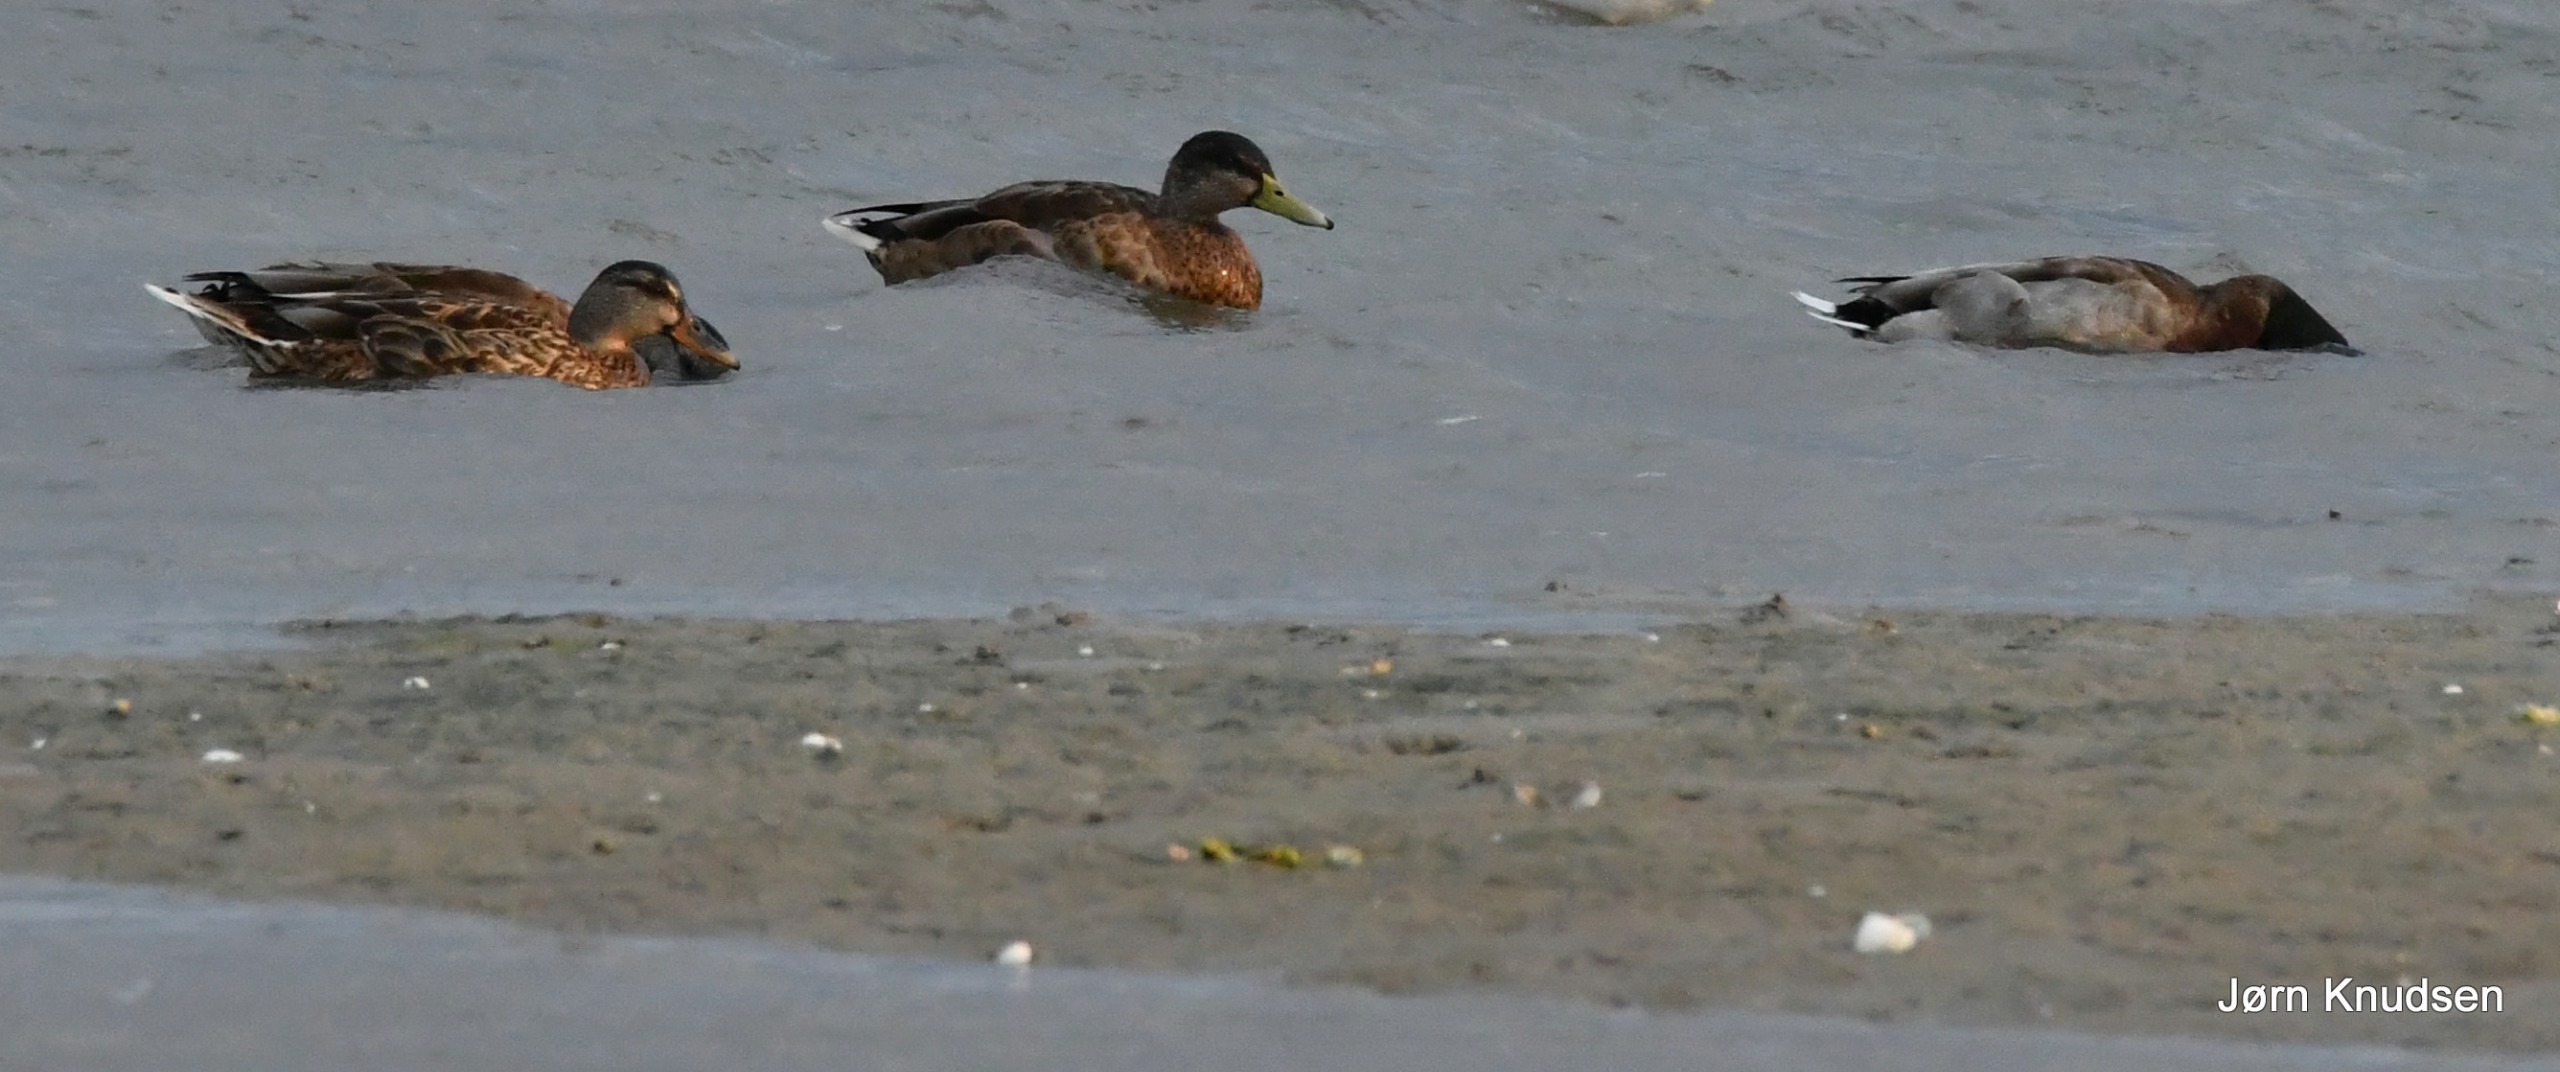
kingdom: Animalia
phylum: Chordata
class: Aves
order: Anseriformes
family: Anatidae
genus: Anas
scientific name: Anas platyrhynchos
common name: Gråand
